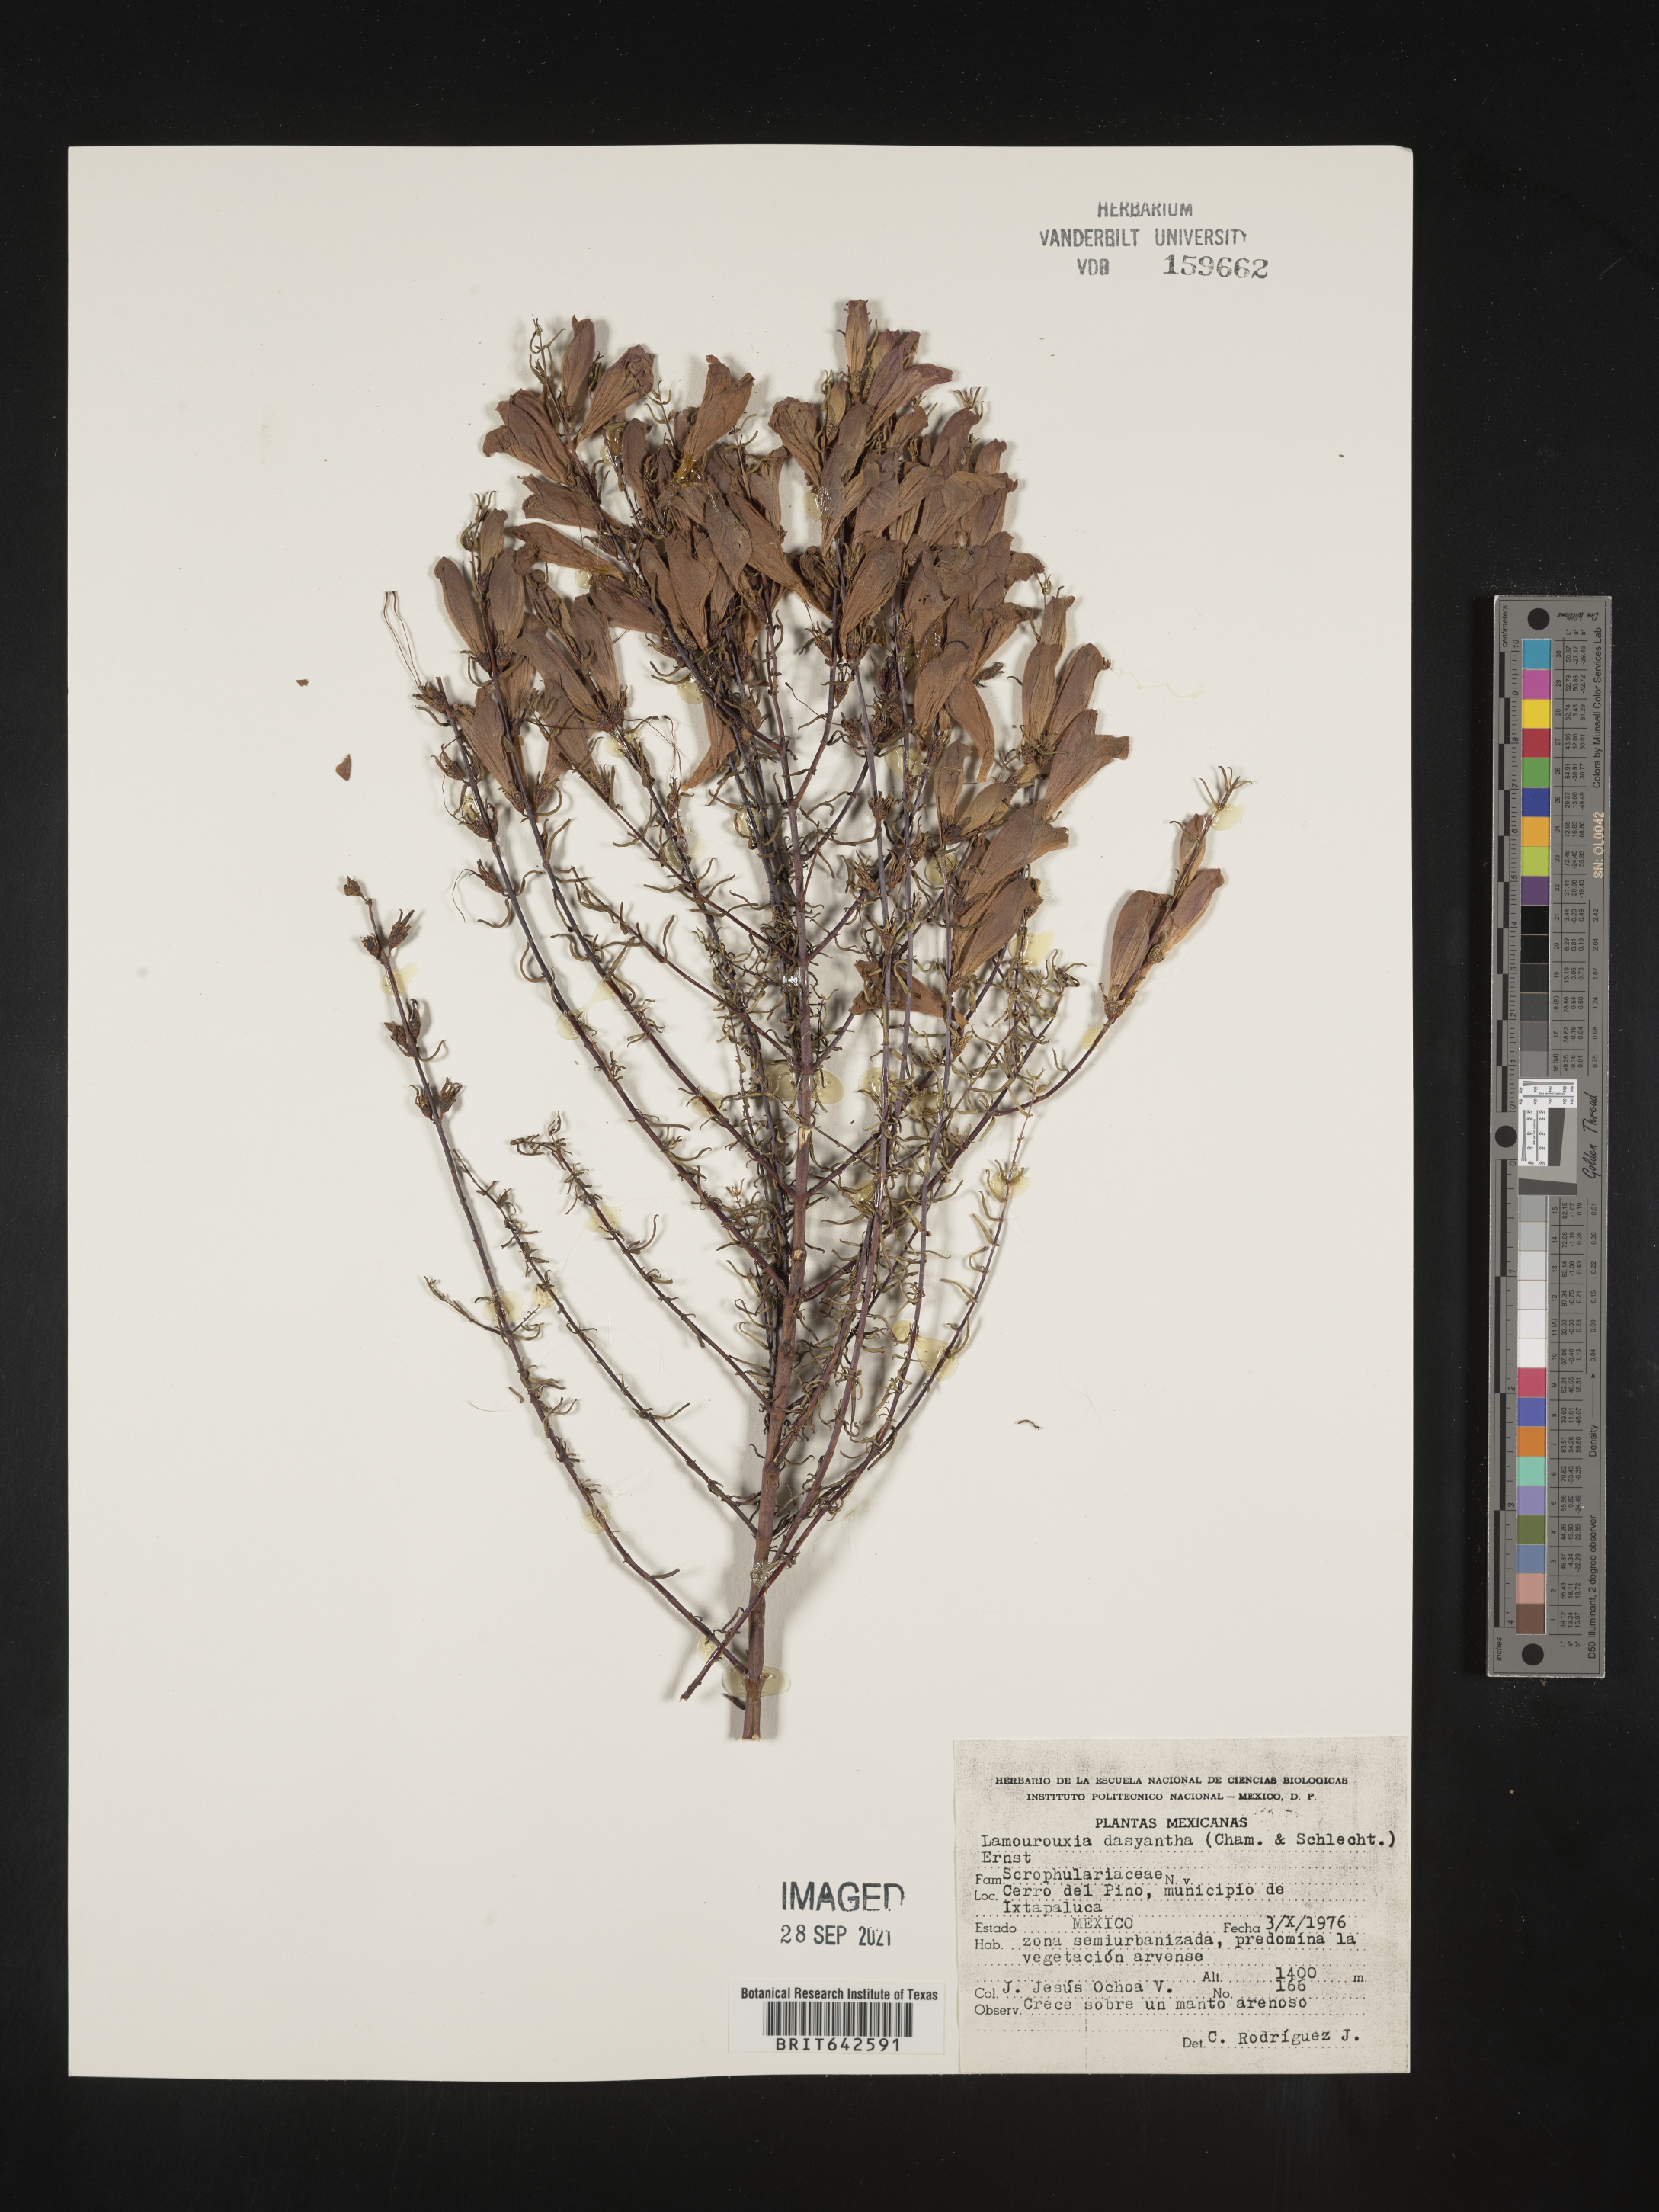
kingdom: Plantae
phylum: Tracheophyta
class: Magnoliopsida
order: Lamiales
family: Orobanchaceae
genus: Lamourouxia
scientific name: Lamourouxia
